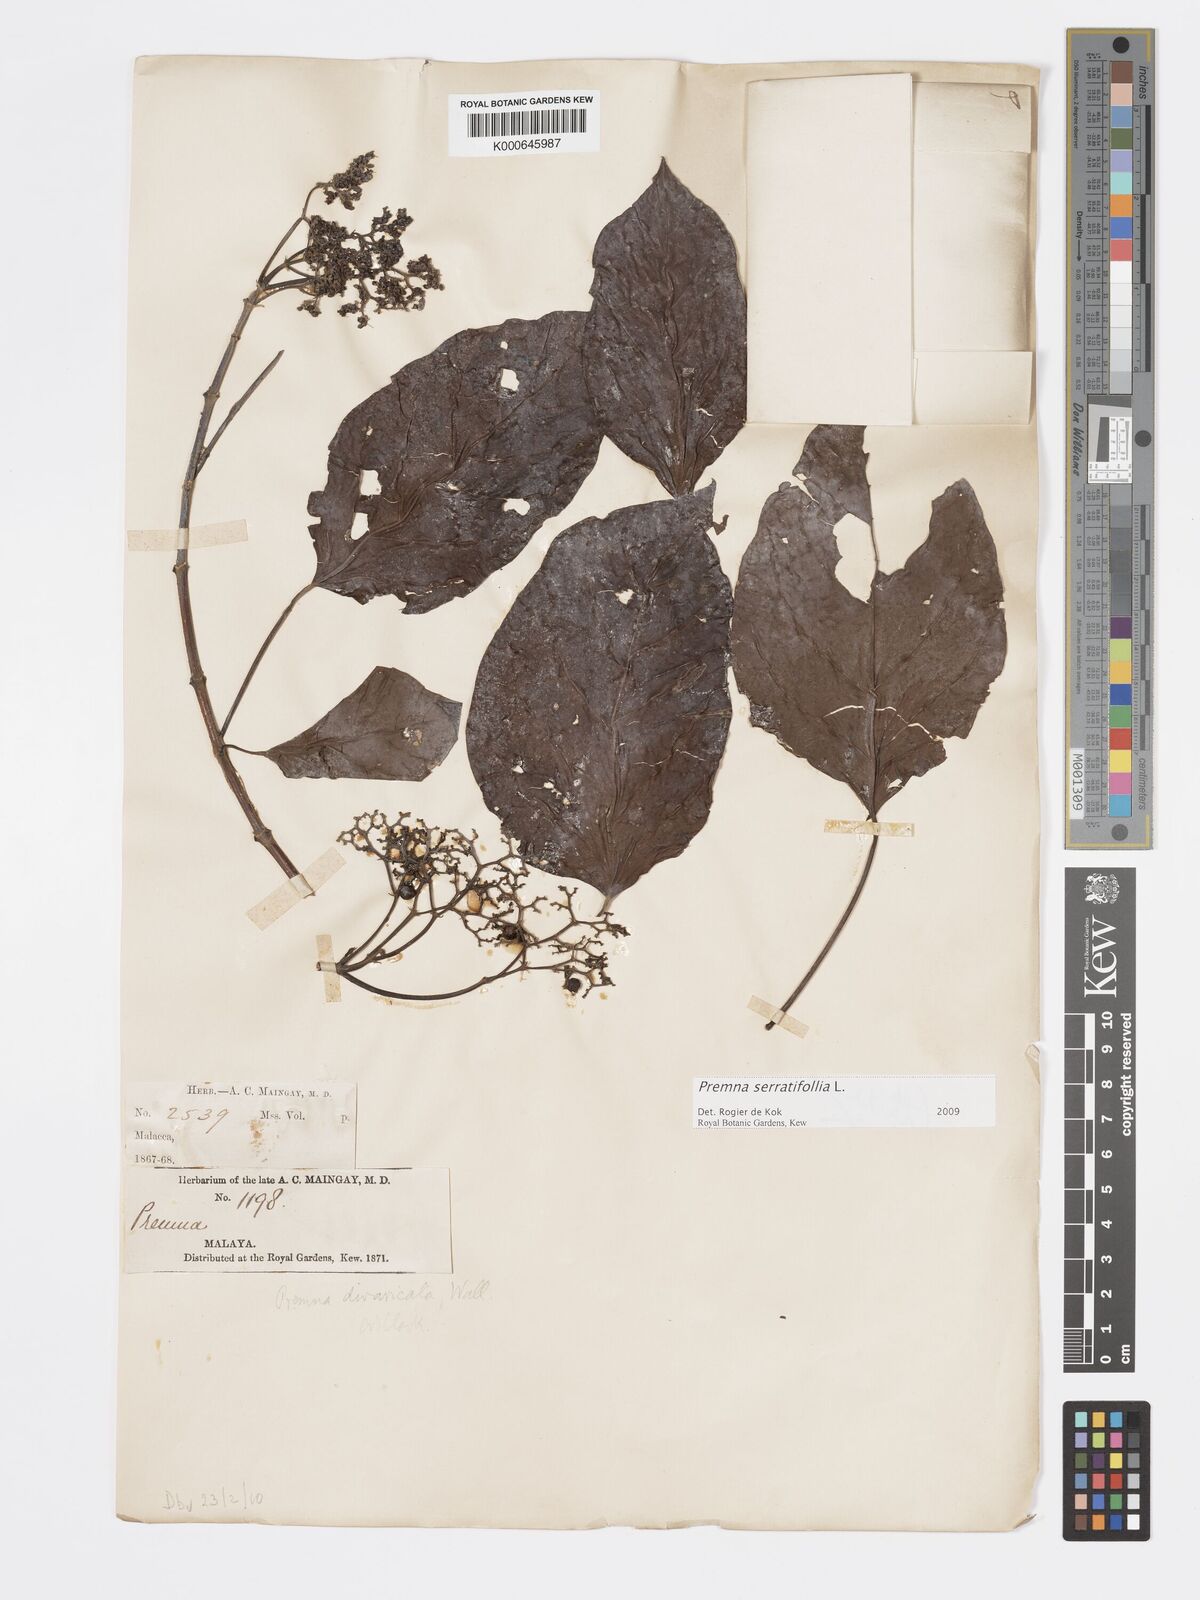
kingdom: Plantae
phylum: Tracheophyta
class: Magnoliopsida
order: Lamiales
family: Lamiaceae
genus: Premna
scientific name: Premna serratifolia
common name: Bastard guelder
